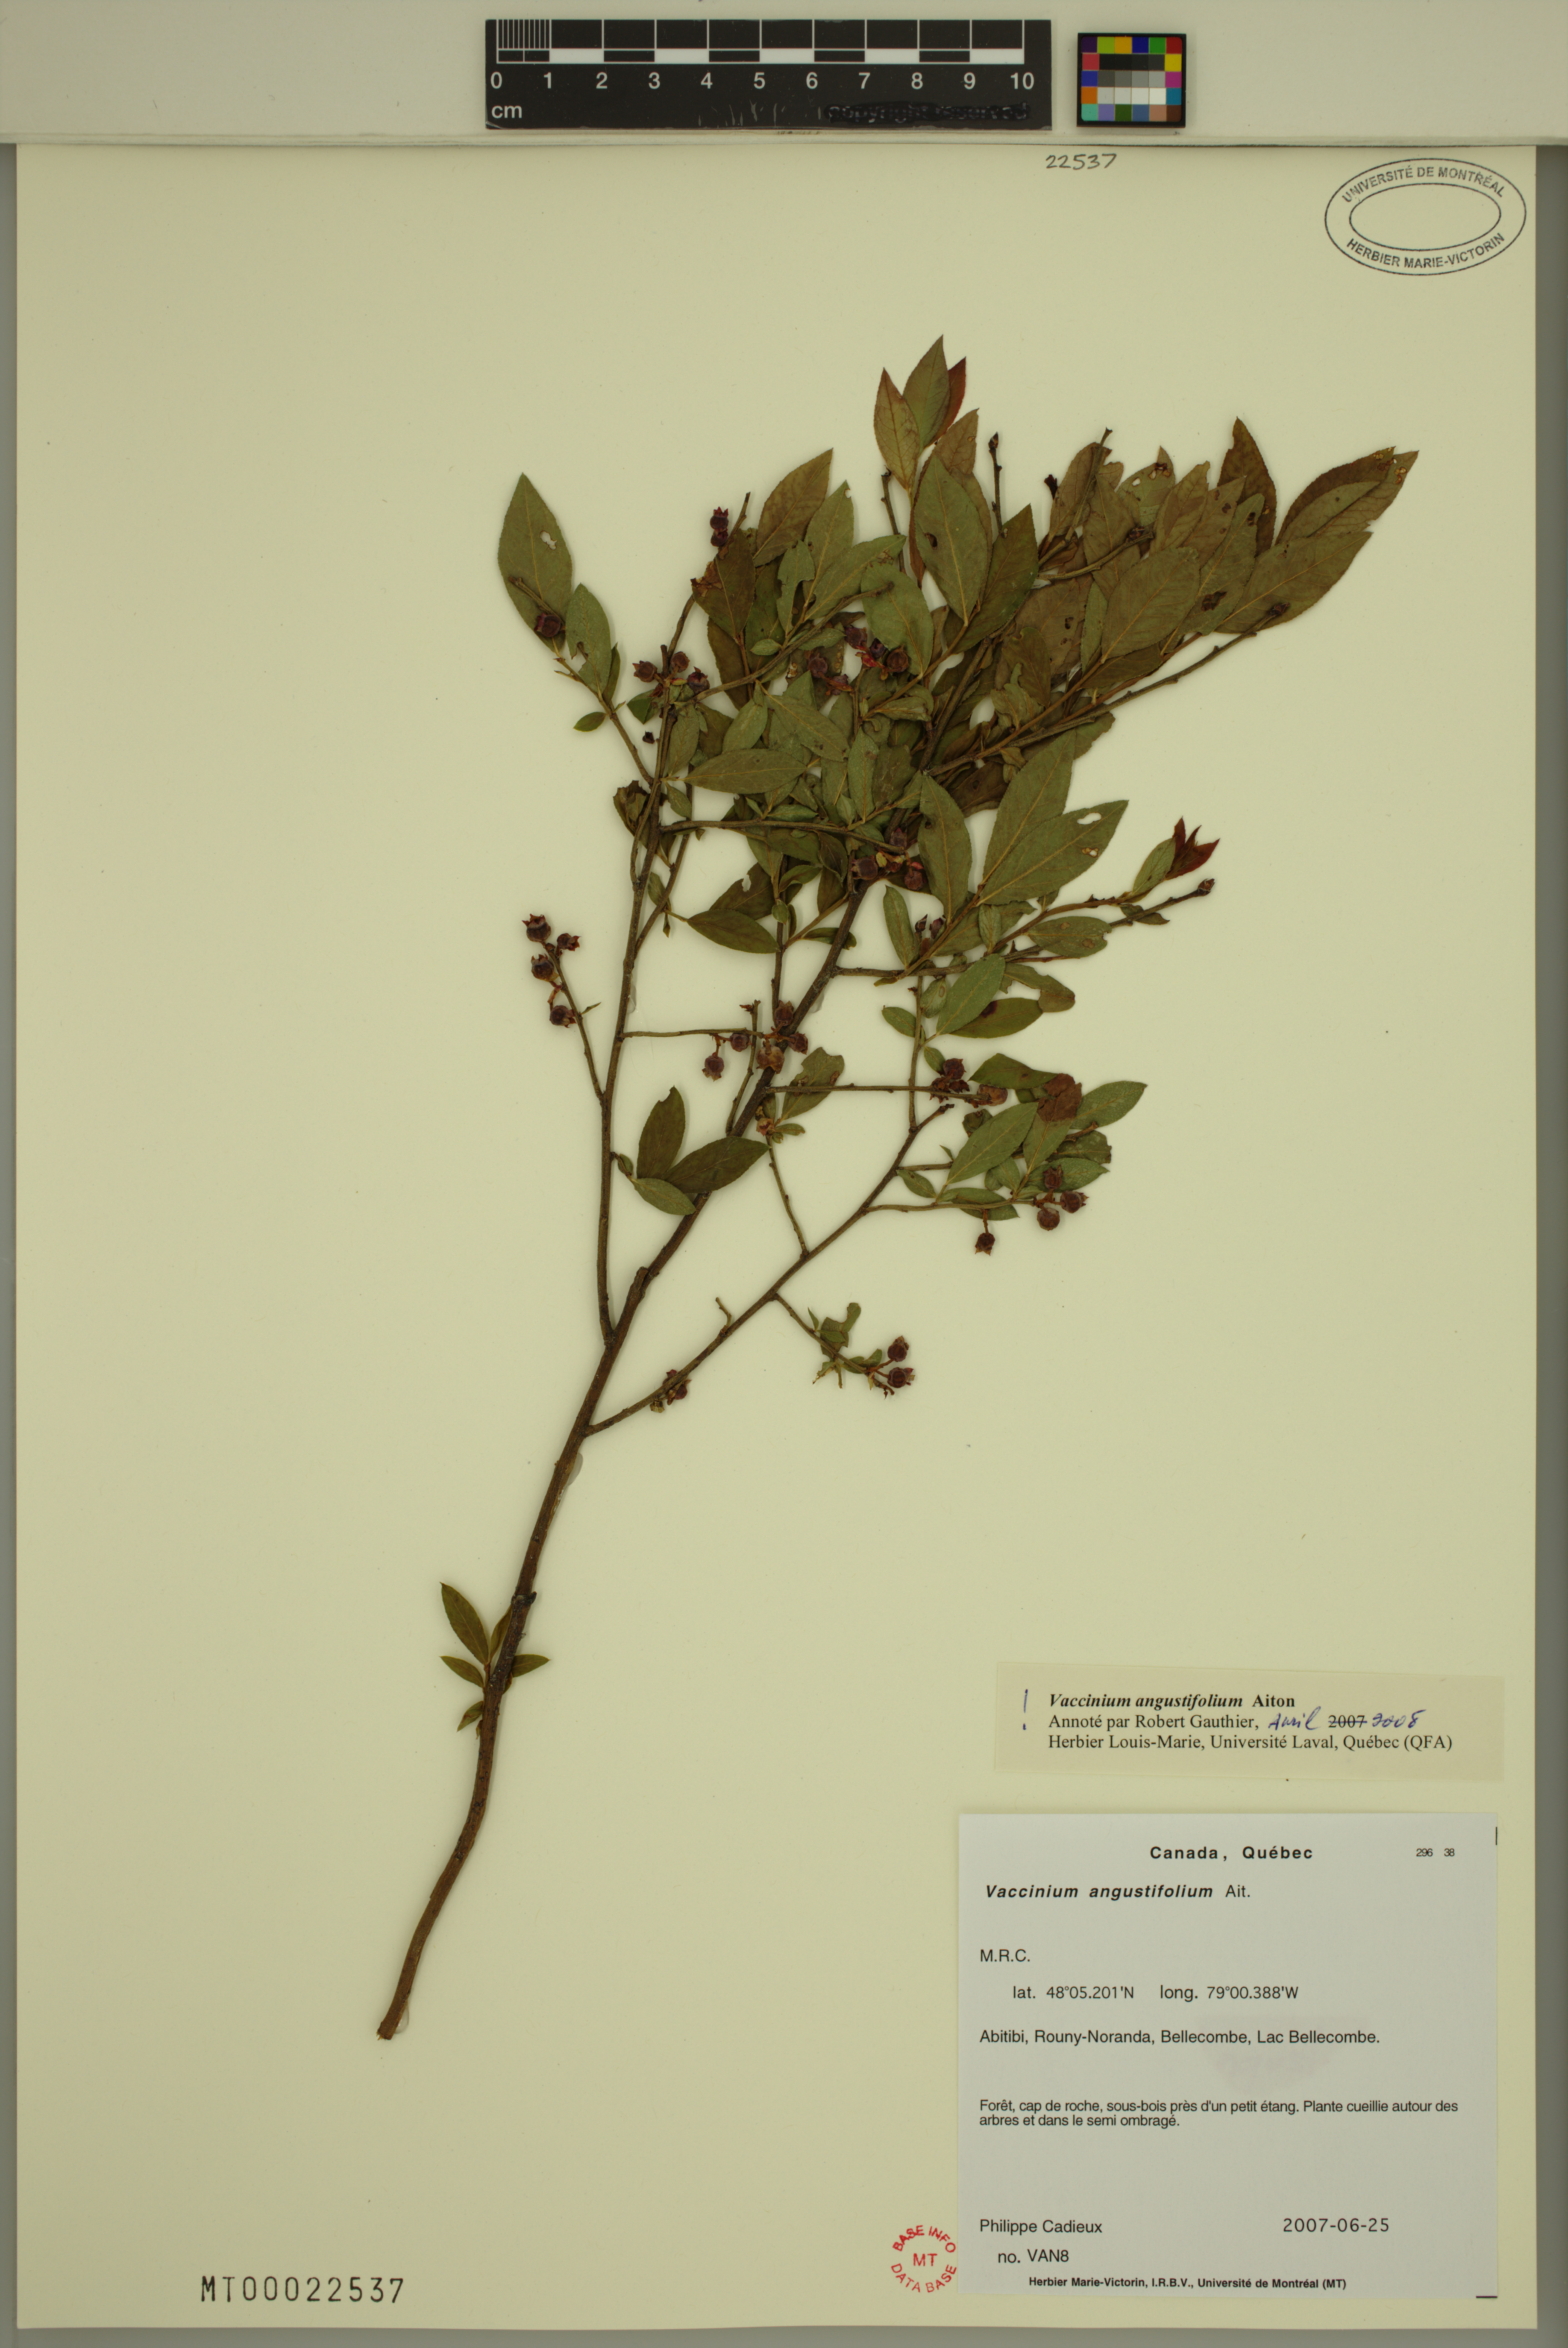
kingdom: Plantae
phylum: Tracheophyta
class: Magnoliopsida
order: Ericales
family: Ericaceae
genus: Vaccinium
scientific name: Vaccinium angustifolium
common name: Early lowbush blueberry
